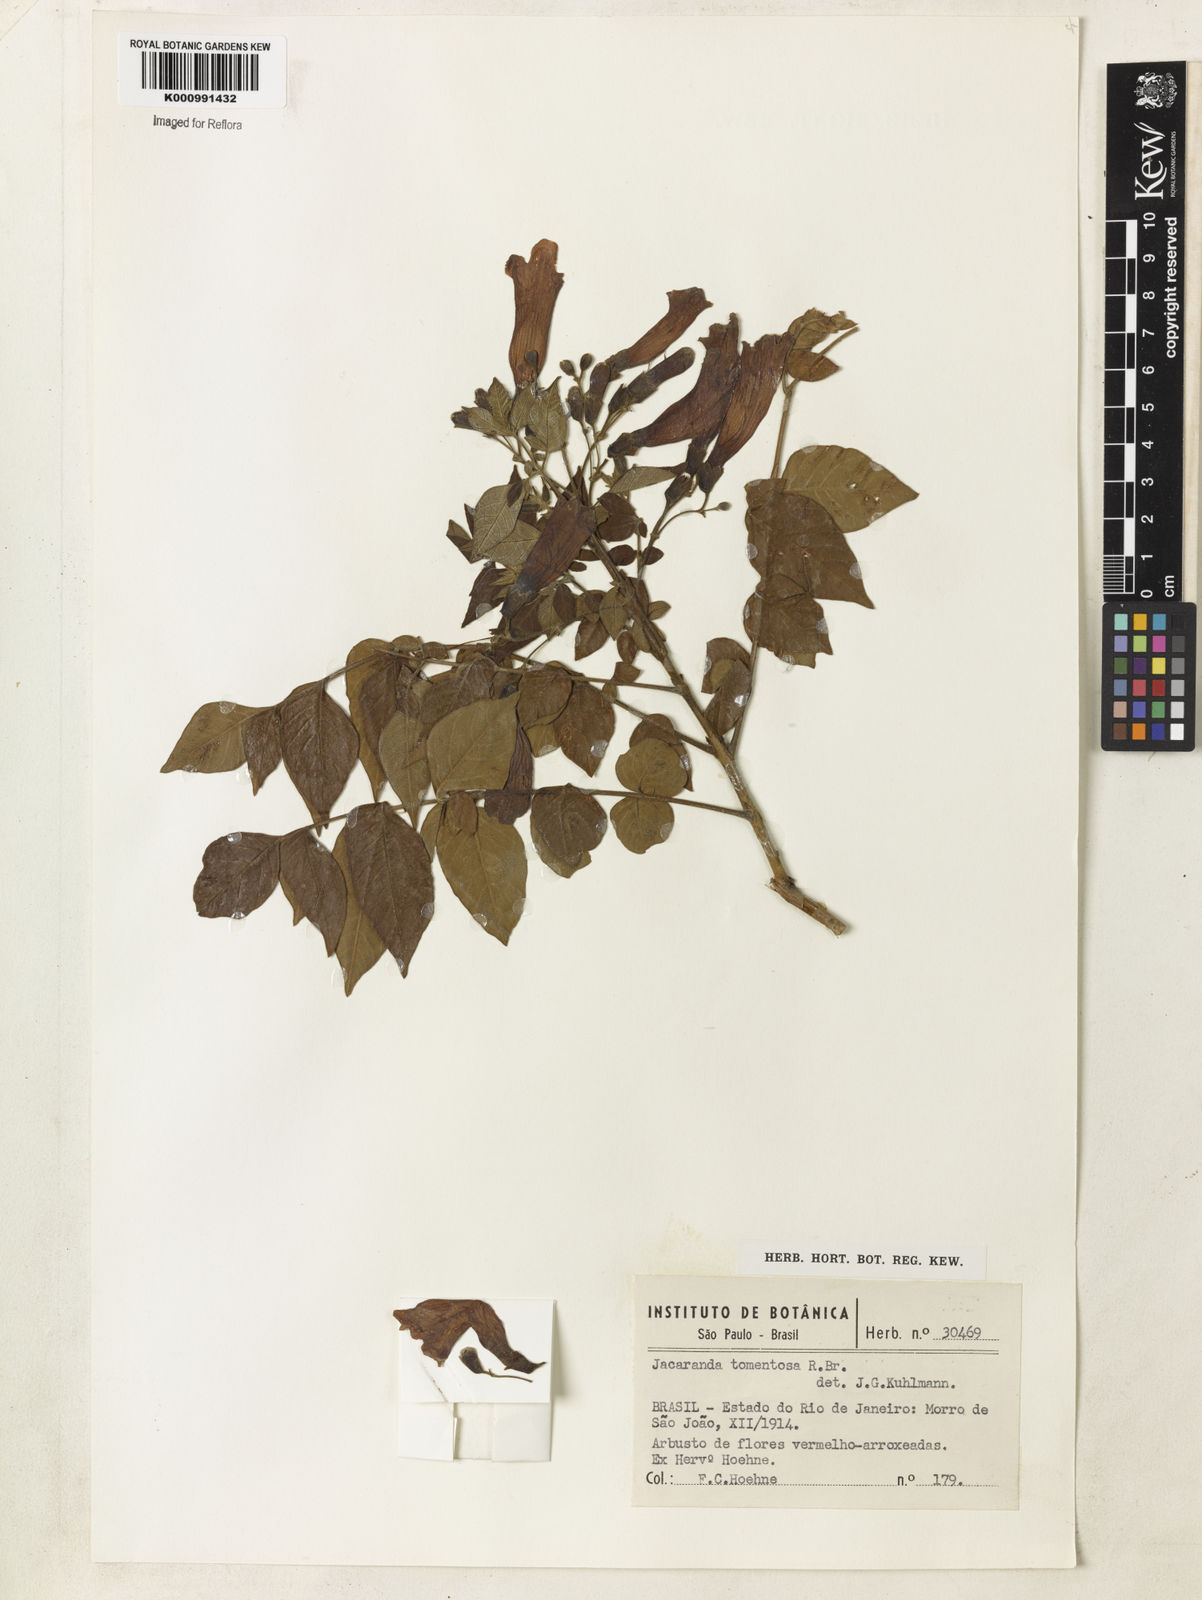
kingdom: Plantae
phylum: Tracheophyta
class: Magnoliopsida
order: Lamiales
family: Bignoniaceae
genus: Jacaranda
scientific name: Jacaranda jasminoides
